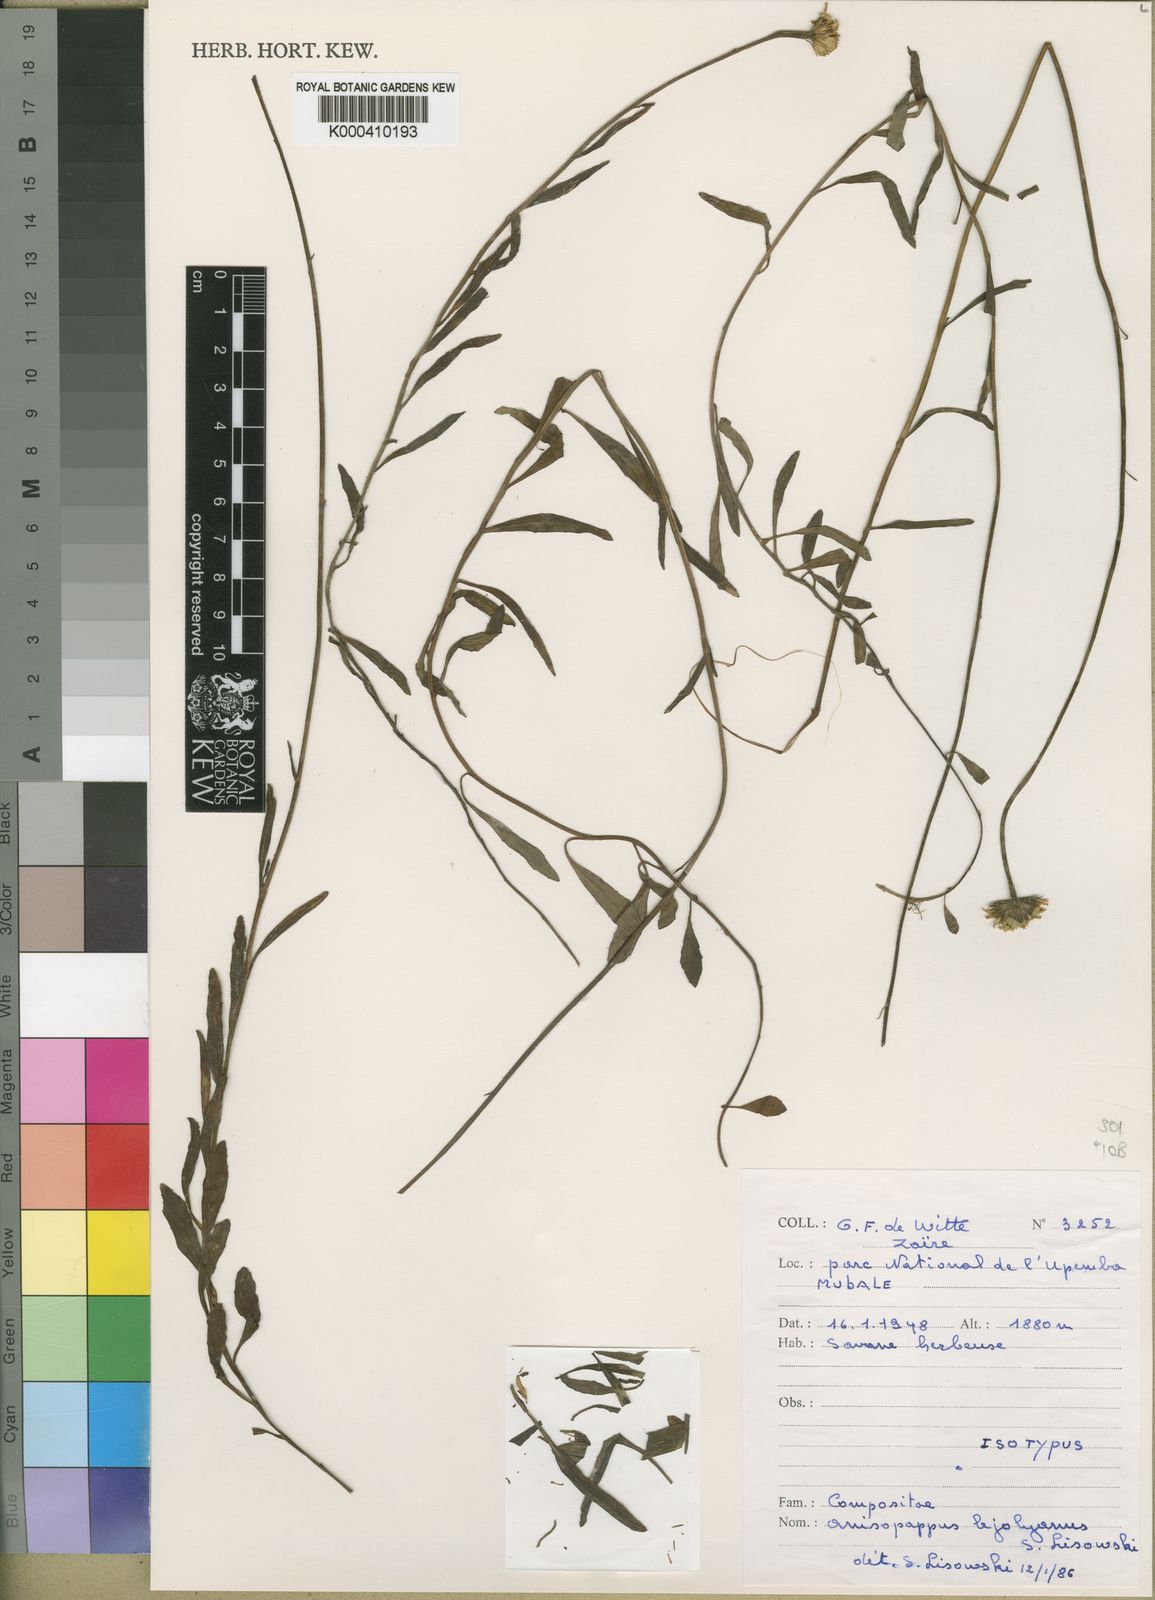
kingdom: Plantae
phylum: Tracheophyta
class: Magnoliopsida
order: Asterales
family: Asteraceae
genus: Anisopappus
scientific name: Anisopappus davyi
